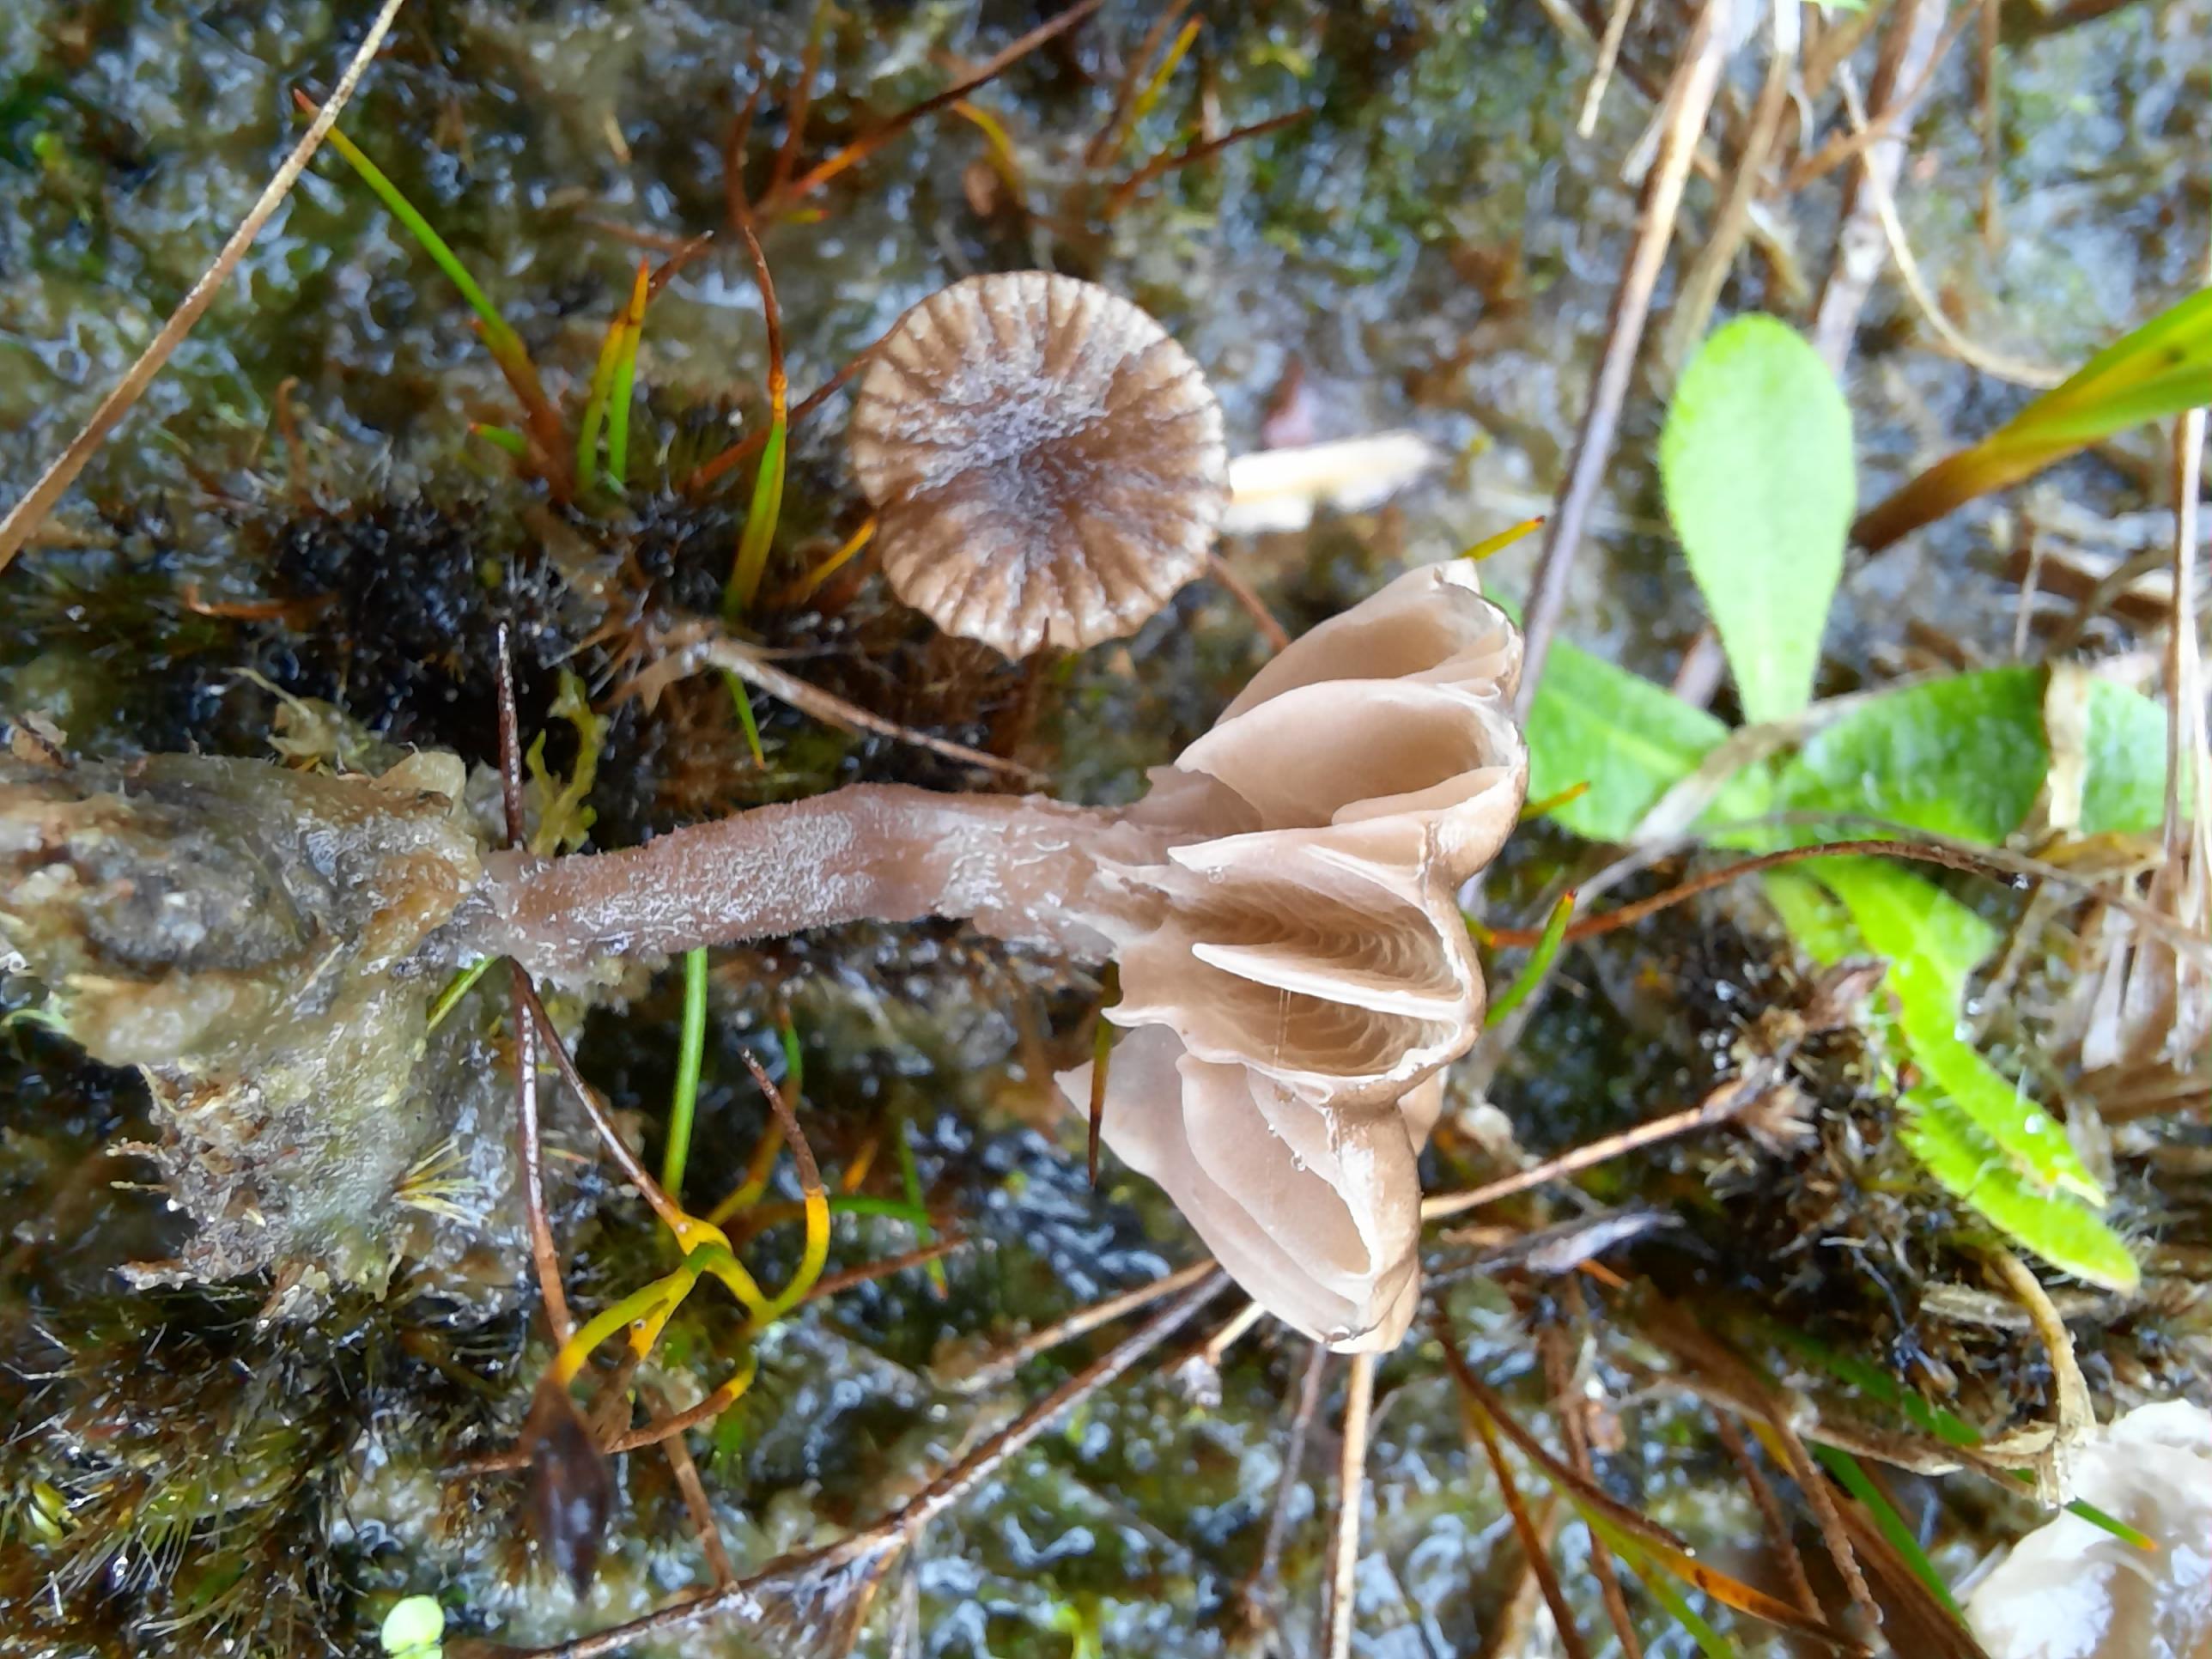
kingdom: Fungi
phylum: Basidiomycota
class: Agaricomycetes
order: Agaricales
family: Hygrophoraceae
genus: Arrhenia
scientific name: Arrhenia obscurata
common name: hede-fontænehat
